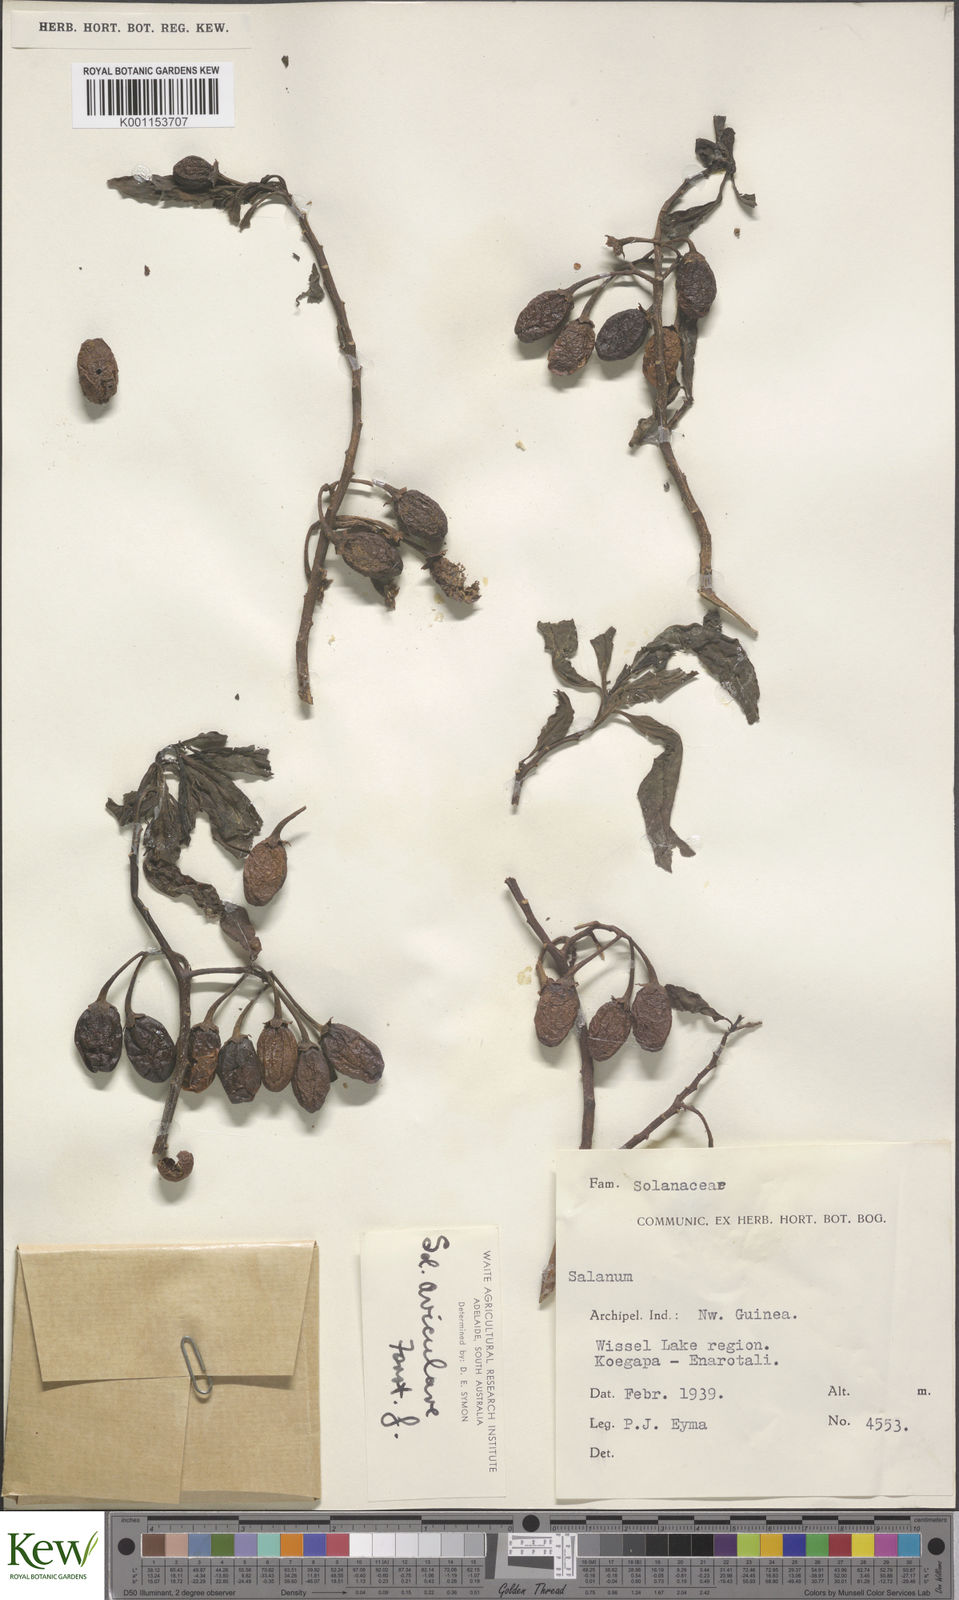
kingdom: Plantae
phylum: Tracheophyta
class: Magnoliopsida
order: Solanales
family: Solanaceae
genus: Solanum
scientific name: Solanum aviculare
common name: New zealand nightshade
